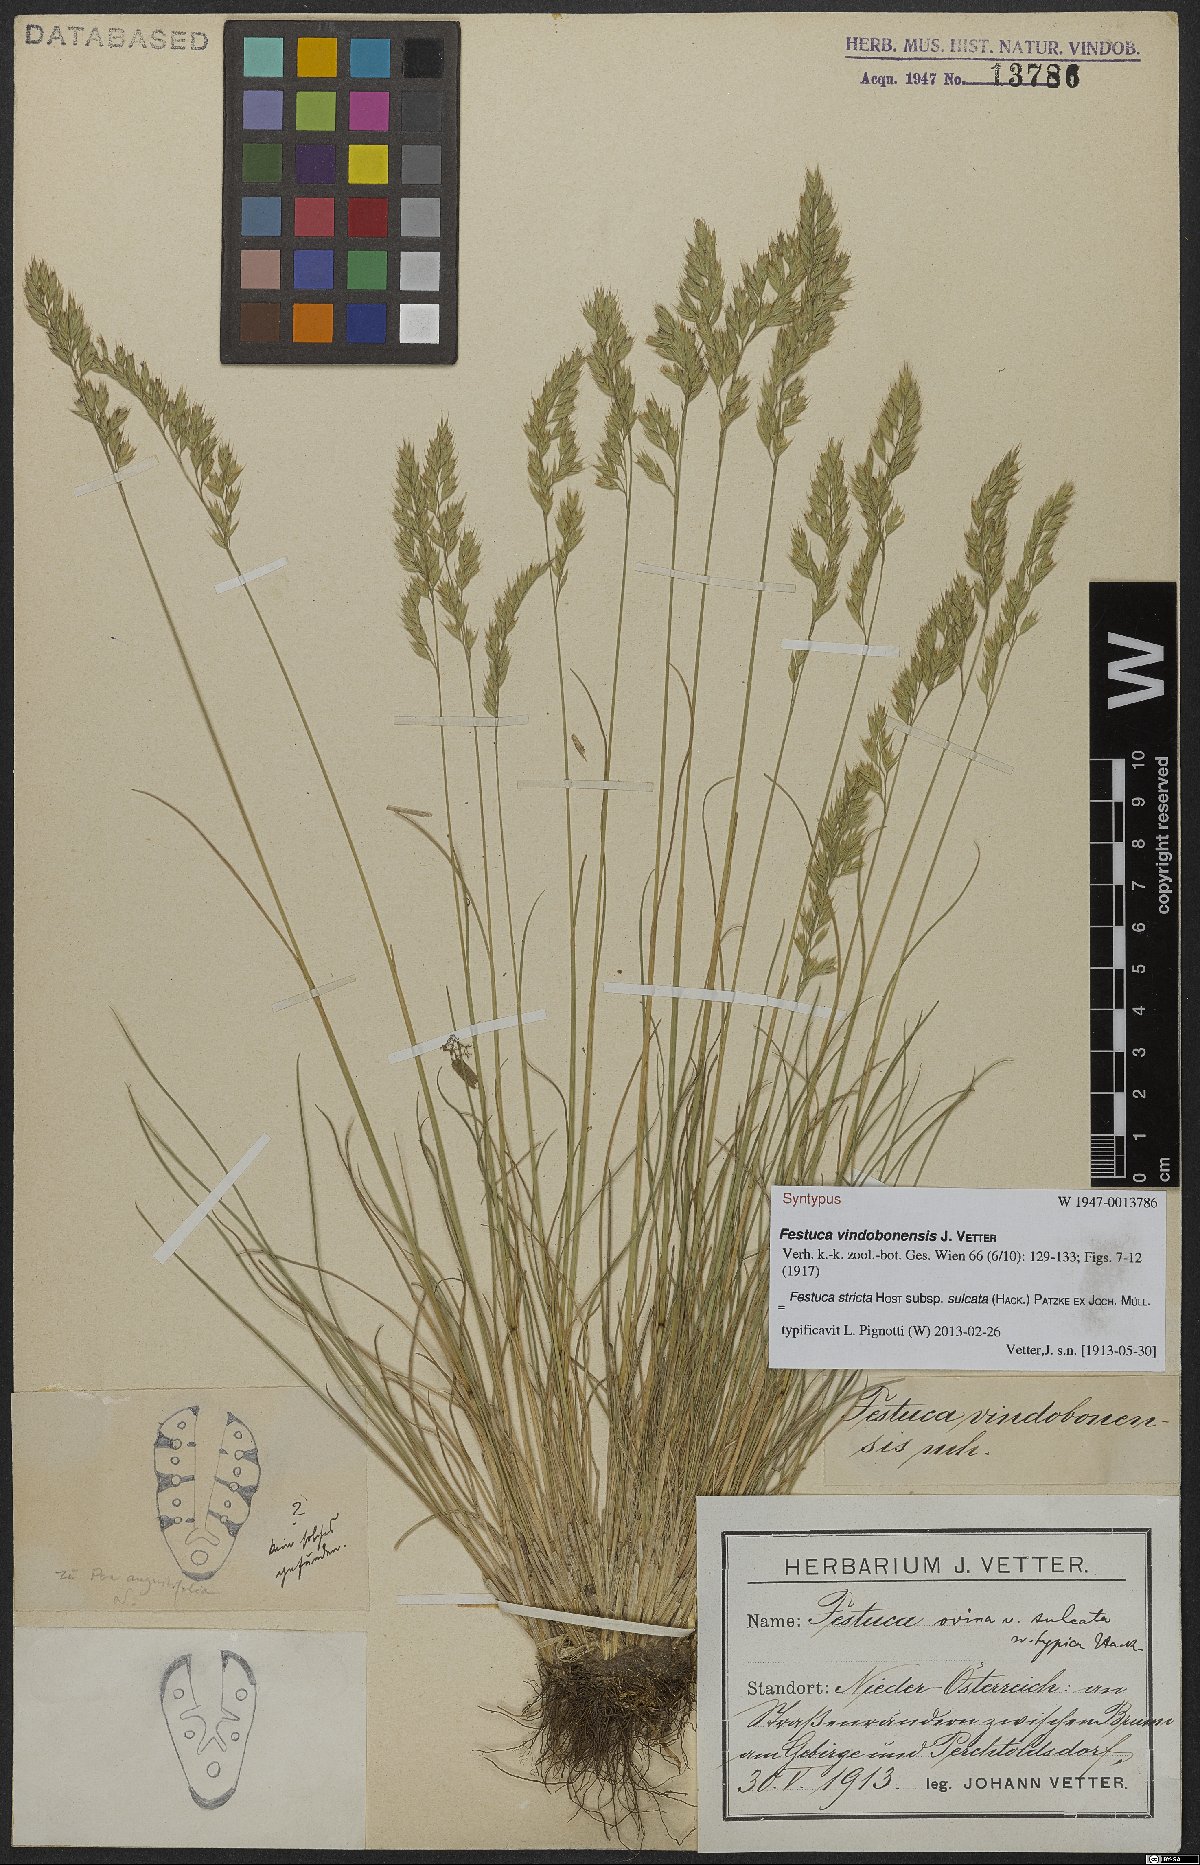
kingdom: Plantae
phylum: Tracheophyta
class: Liliopsida
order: Poales
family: Poaceae
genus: Festuca
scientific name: Festuca rupicola
